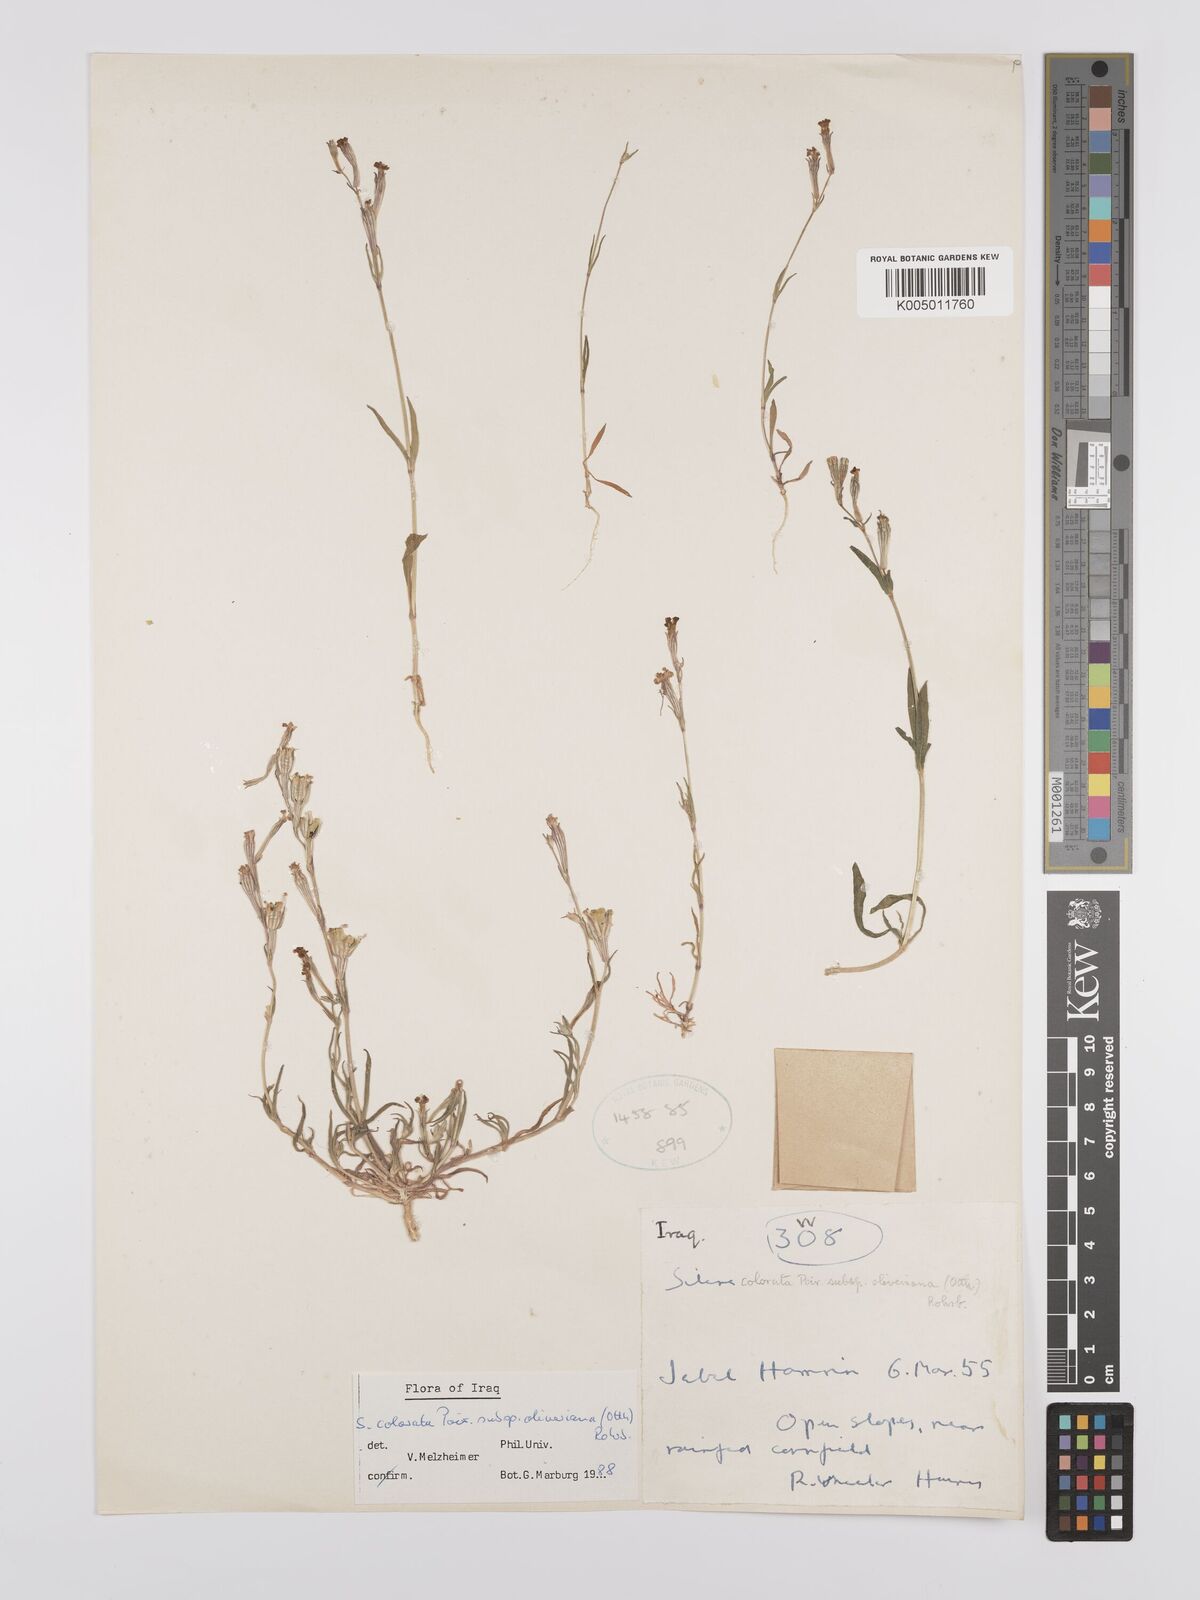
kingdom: Plantae
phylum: Tracheophyta
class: Magnoliopsida
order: Caryophyllales
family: Caryophyllaceae
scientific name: Caryophyllaceae
